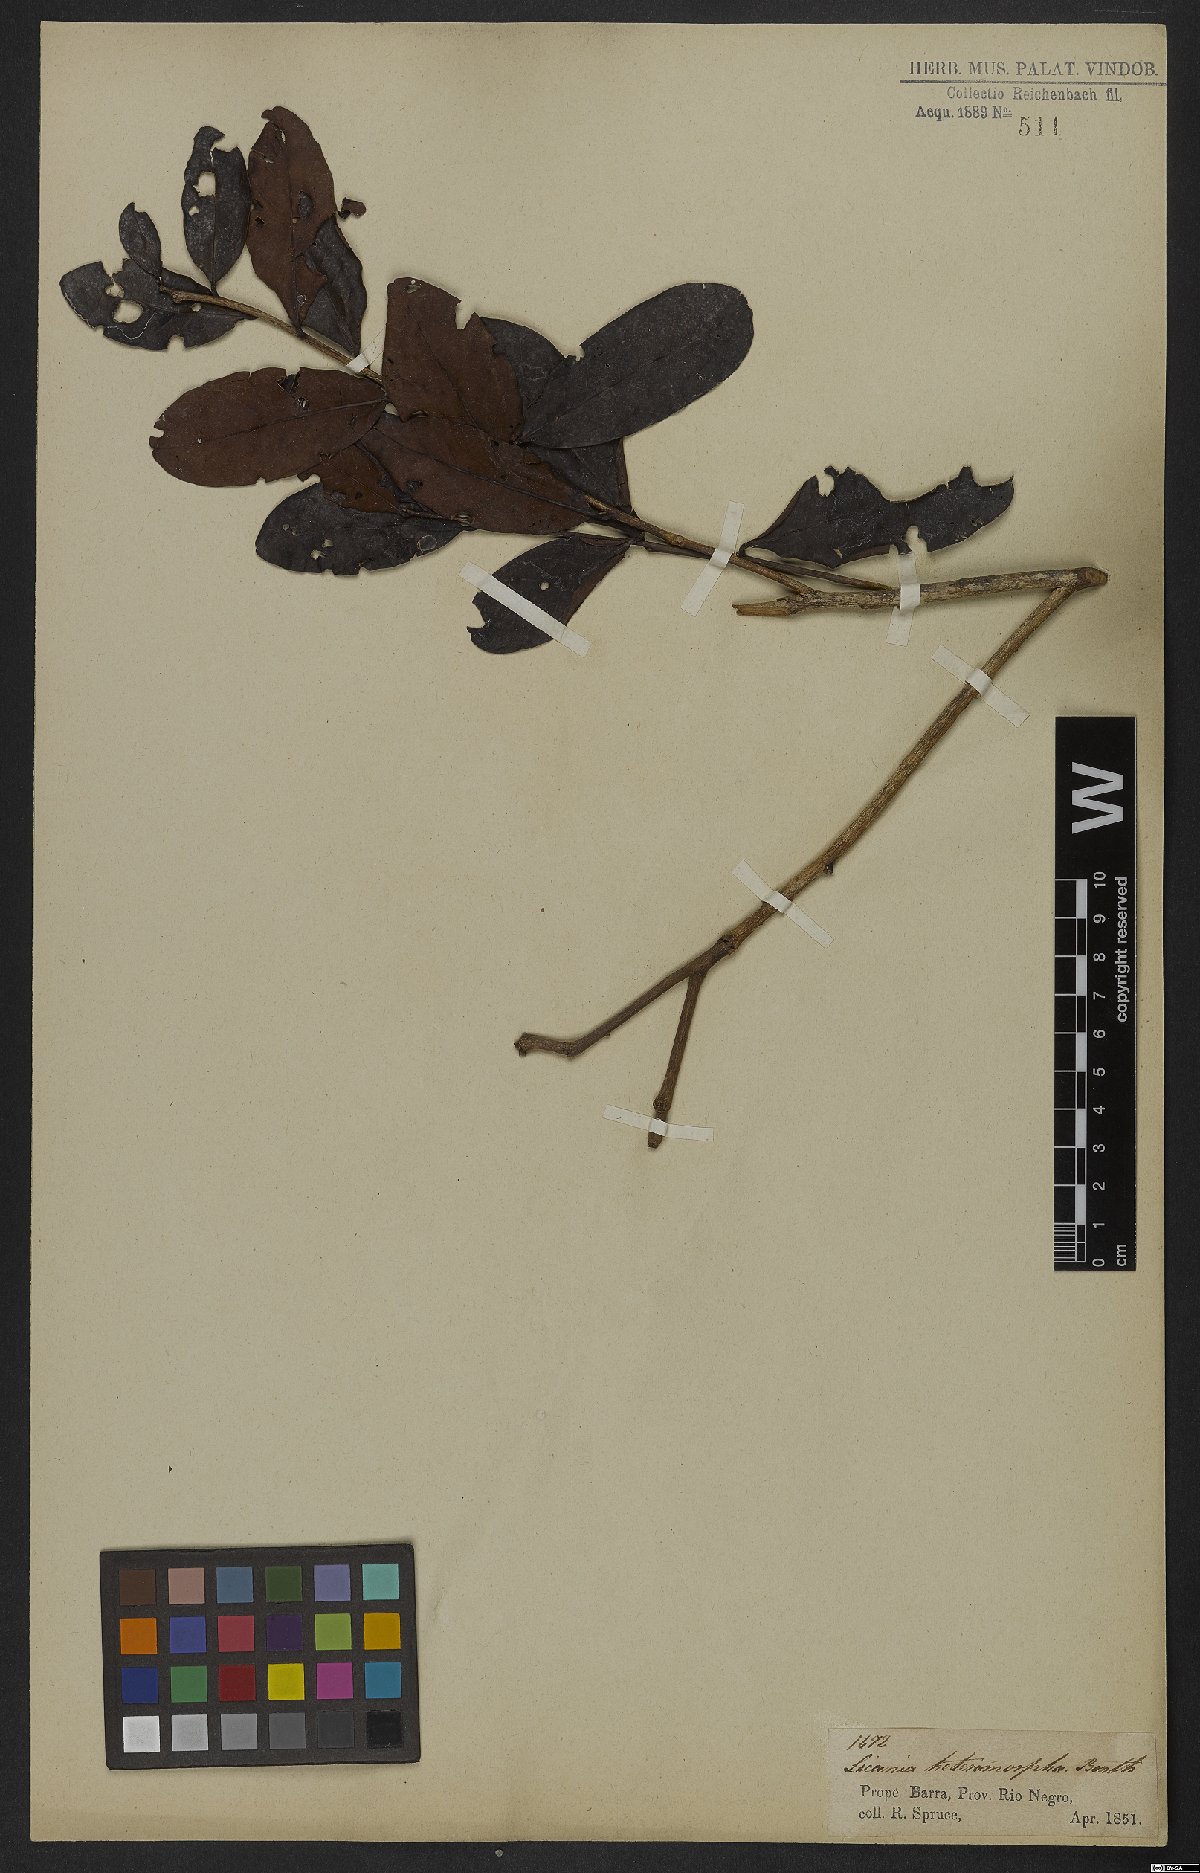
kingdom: Plantae
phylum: Tracheophyta
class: Magnoliopsida
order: Malpighiales
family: Chrysobalanaceae
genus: Hymenopus
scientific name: Hymenopus heteromorphus
